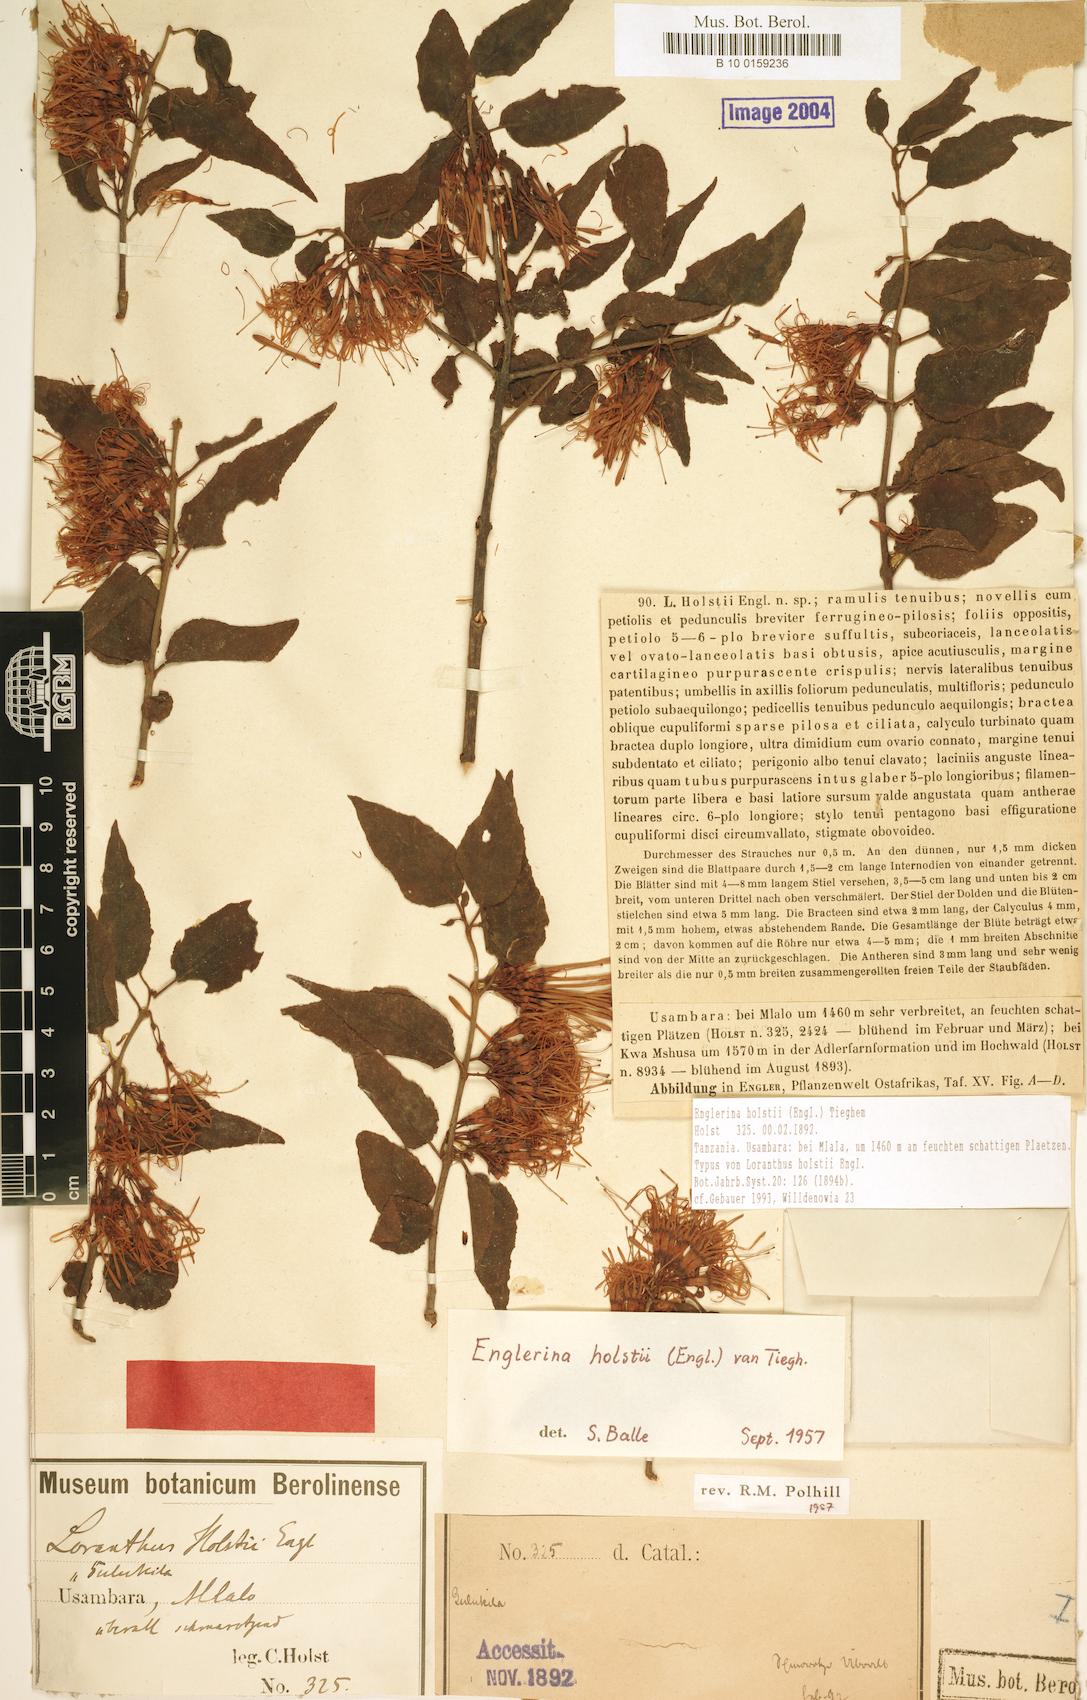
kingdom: Plantae
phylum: Tracheophyta
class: Magnoliopsida
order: Santalales
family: Loranthaceae
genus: Englerina
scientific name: Englerina holstii
